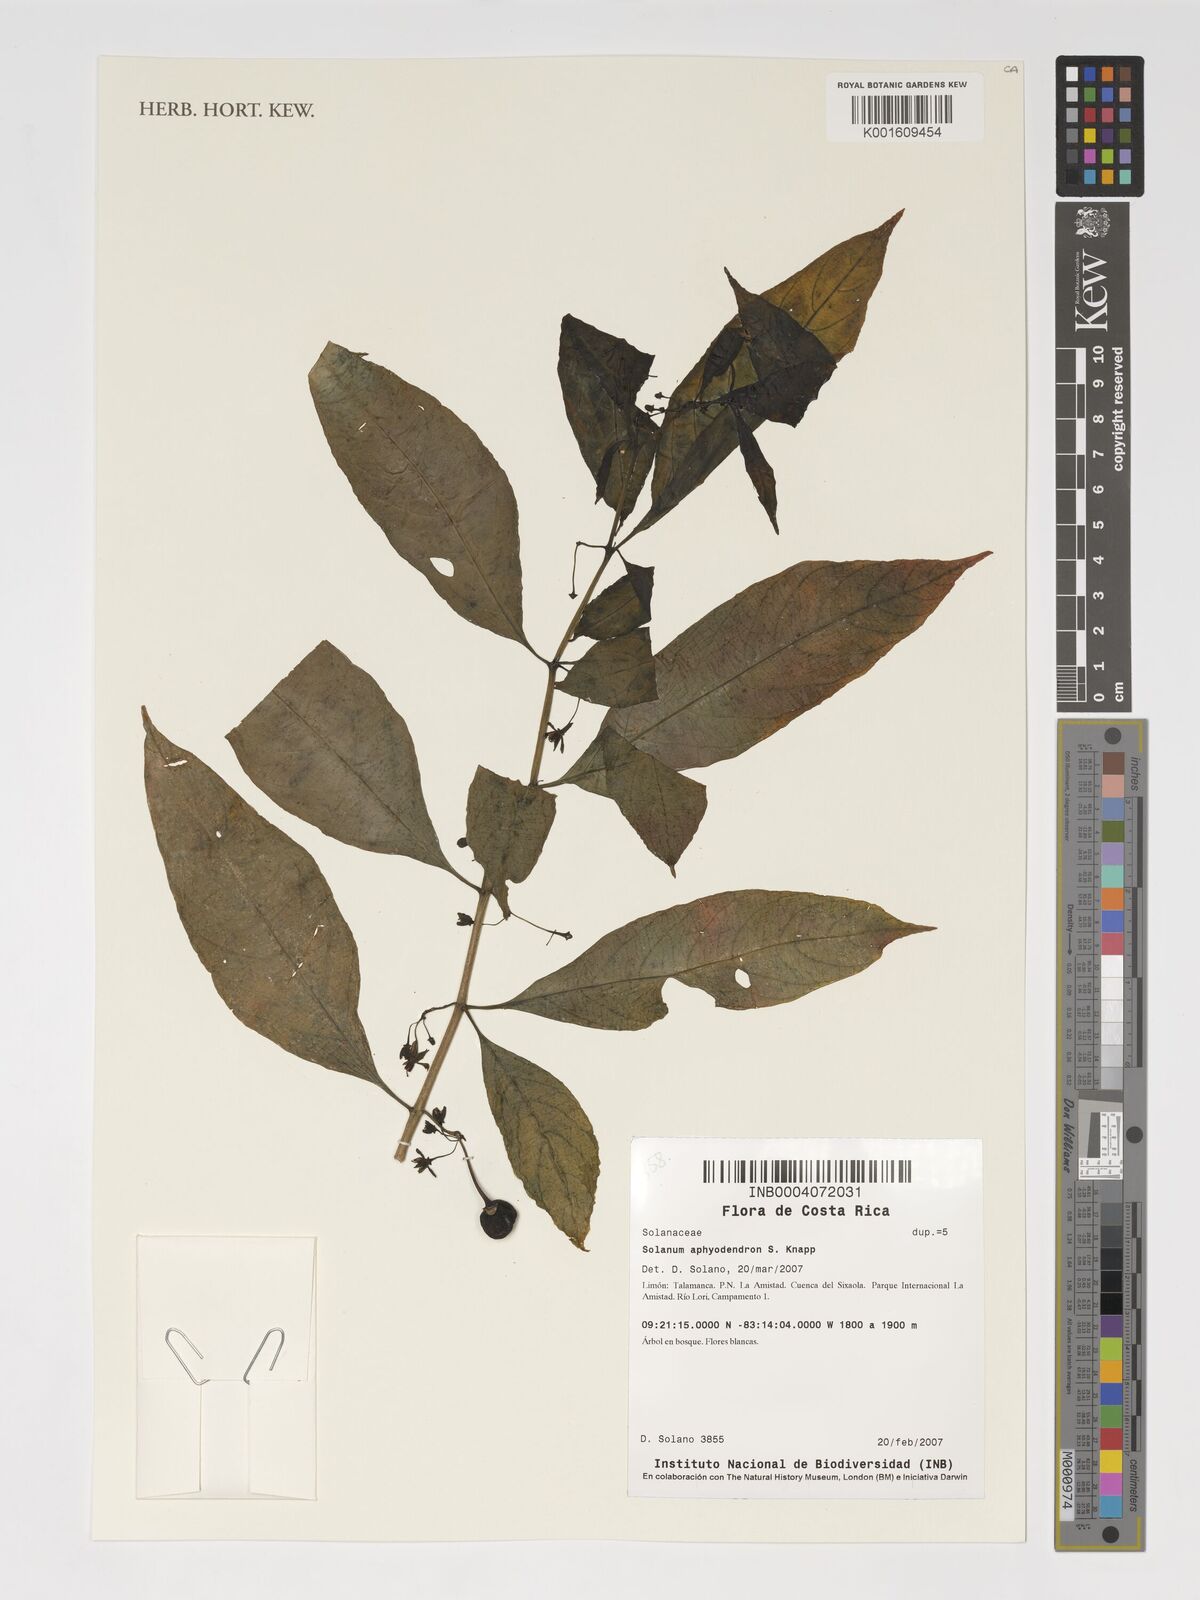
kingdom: Plantae
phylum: Tracheophyta
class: Magnoliopsida
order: Solanales
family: Solanaceae
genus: Solanum
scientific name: Solanum aphyodendron
